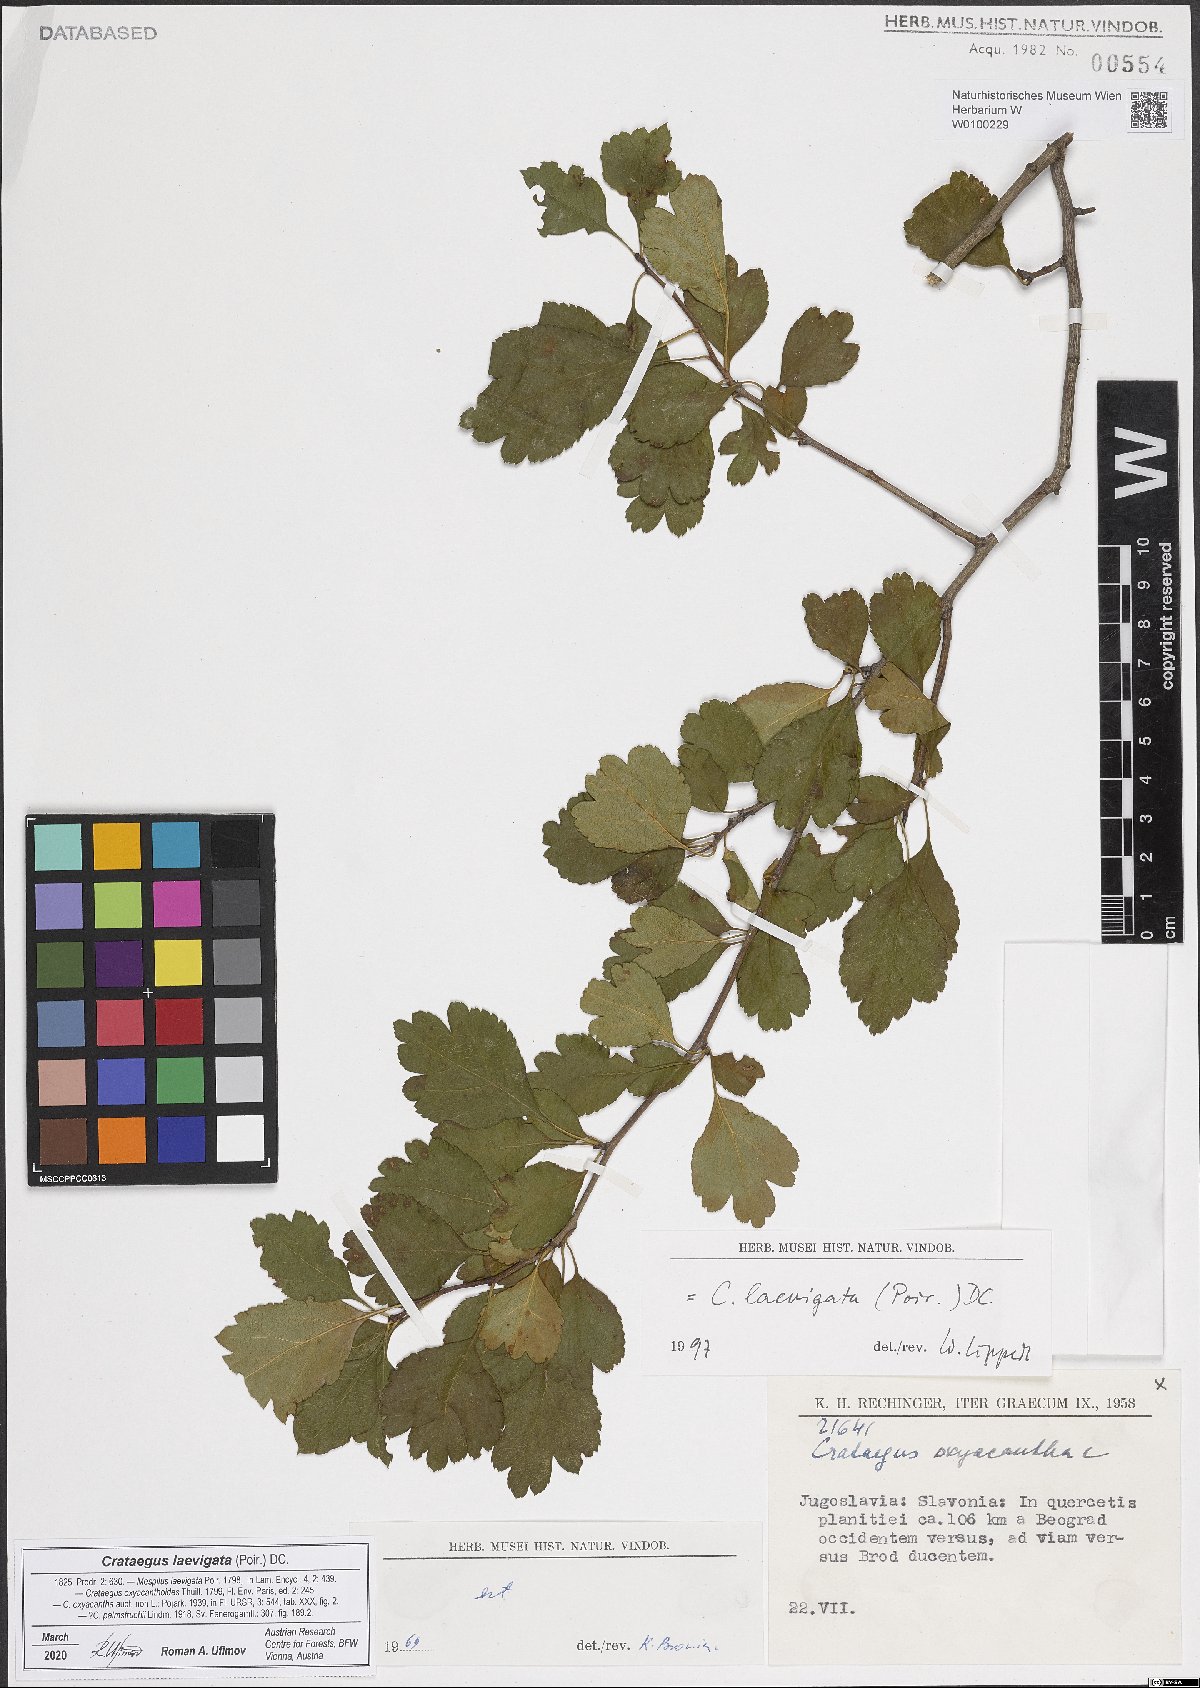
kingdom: Plantae
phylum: Tracheophyta
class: Magnoliopsida
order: Rosales
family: Rosaceae
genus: Crataegus
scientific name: Crataegus laevigata
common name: Midland hawthorn
